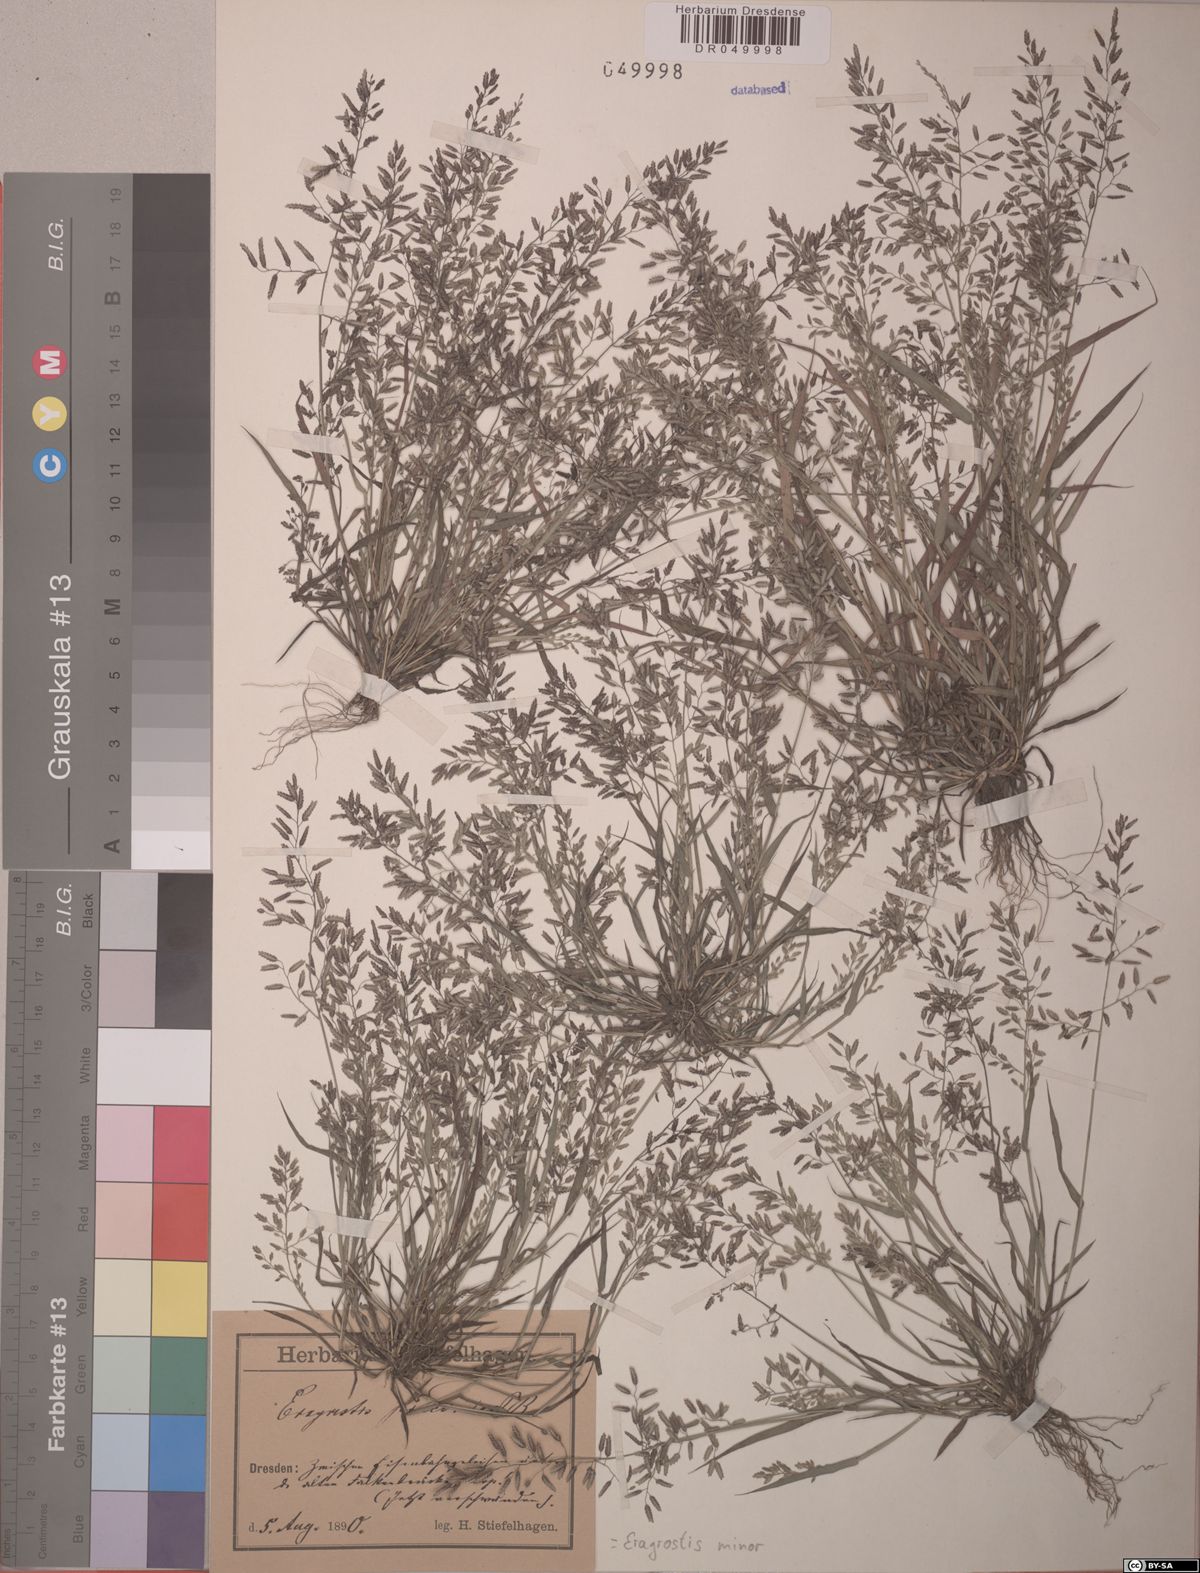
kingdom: Plantae
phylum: Tracheophyta
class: Liliopsida
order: Poales
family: Poaceae
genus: Eragrostis
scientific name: Eragrostis minor
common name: Small love-grass
